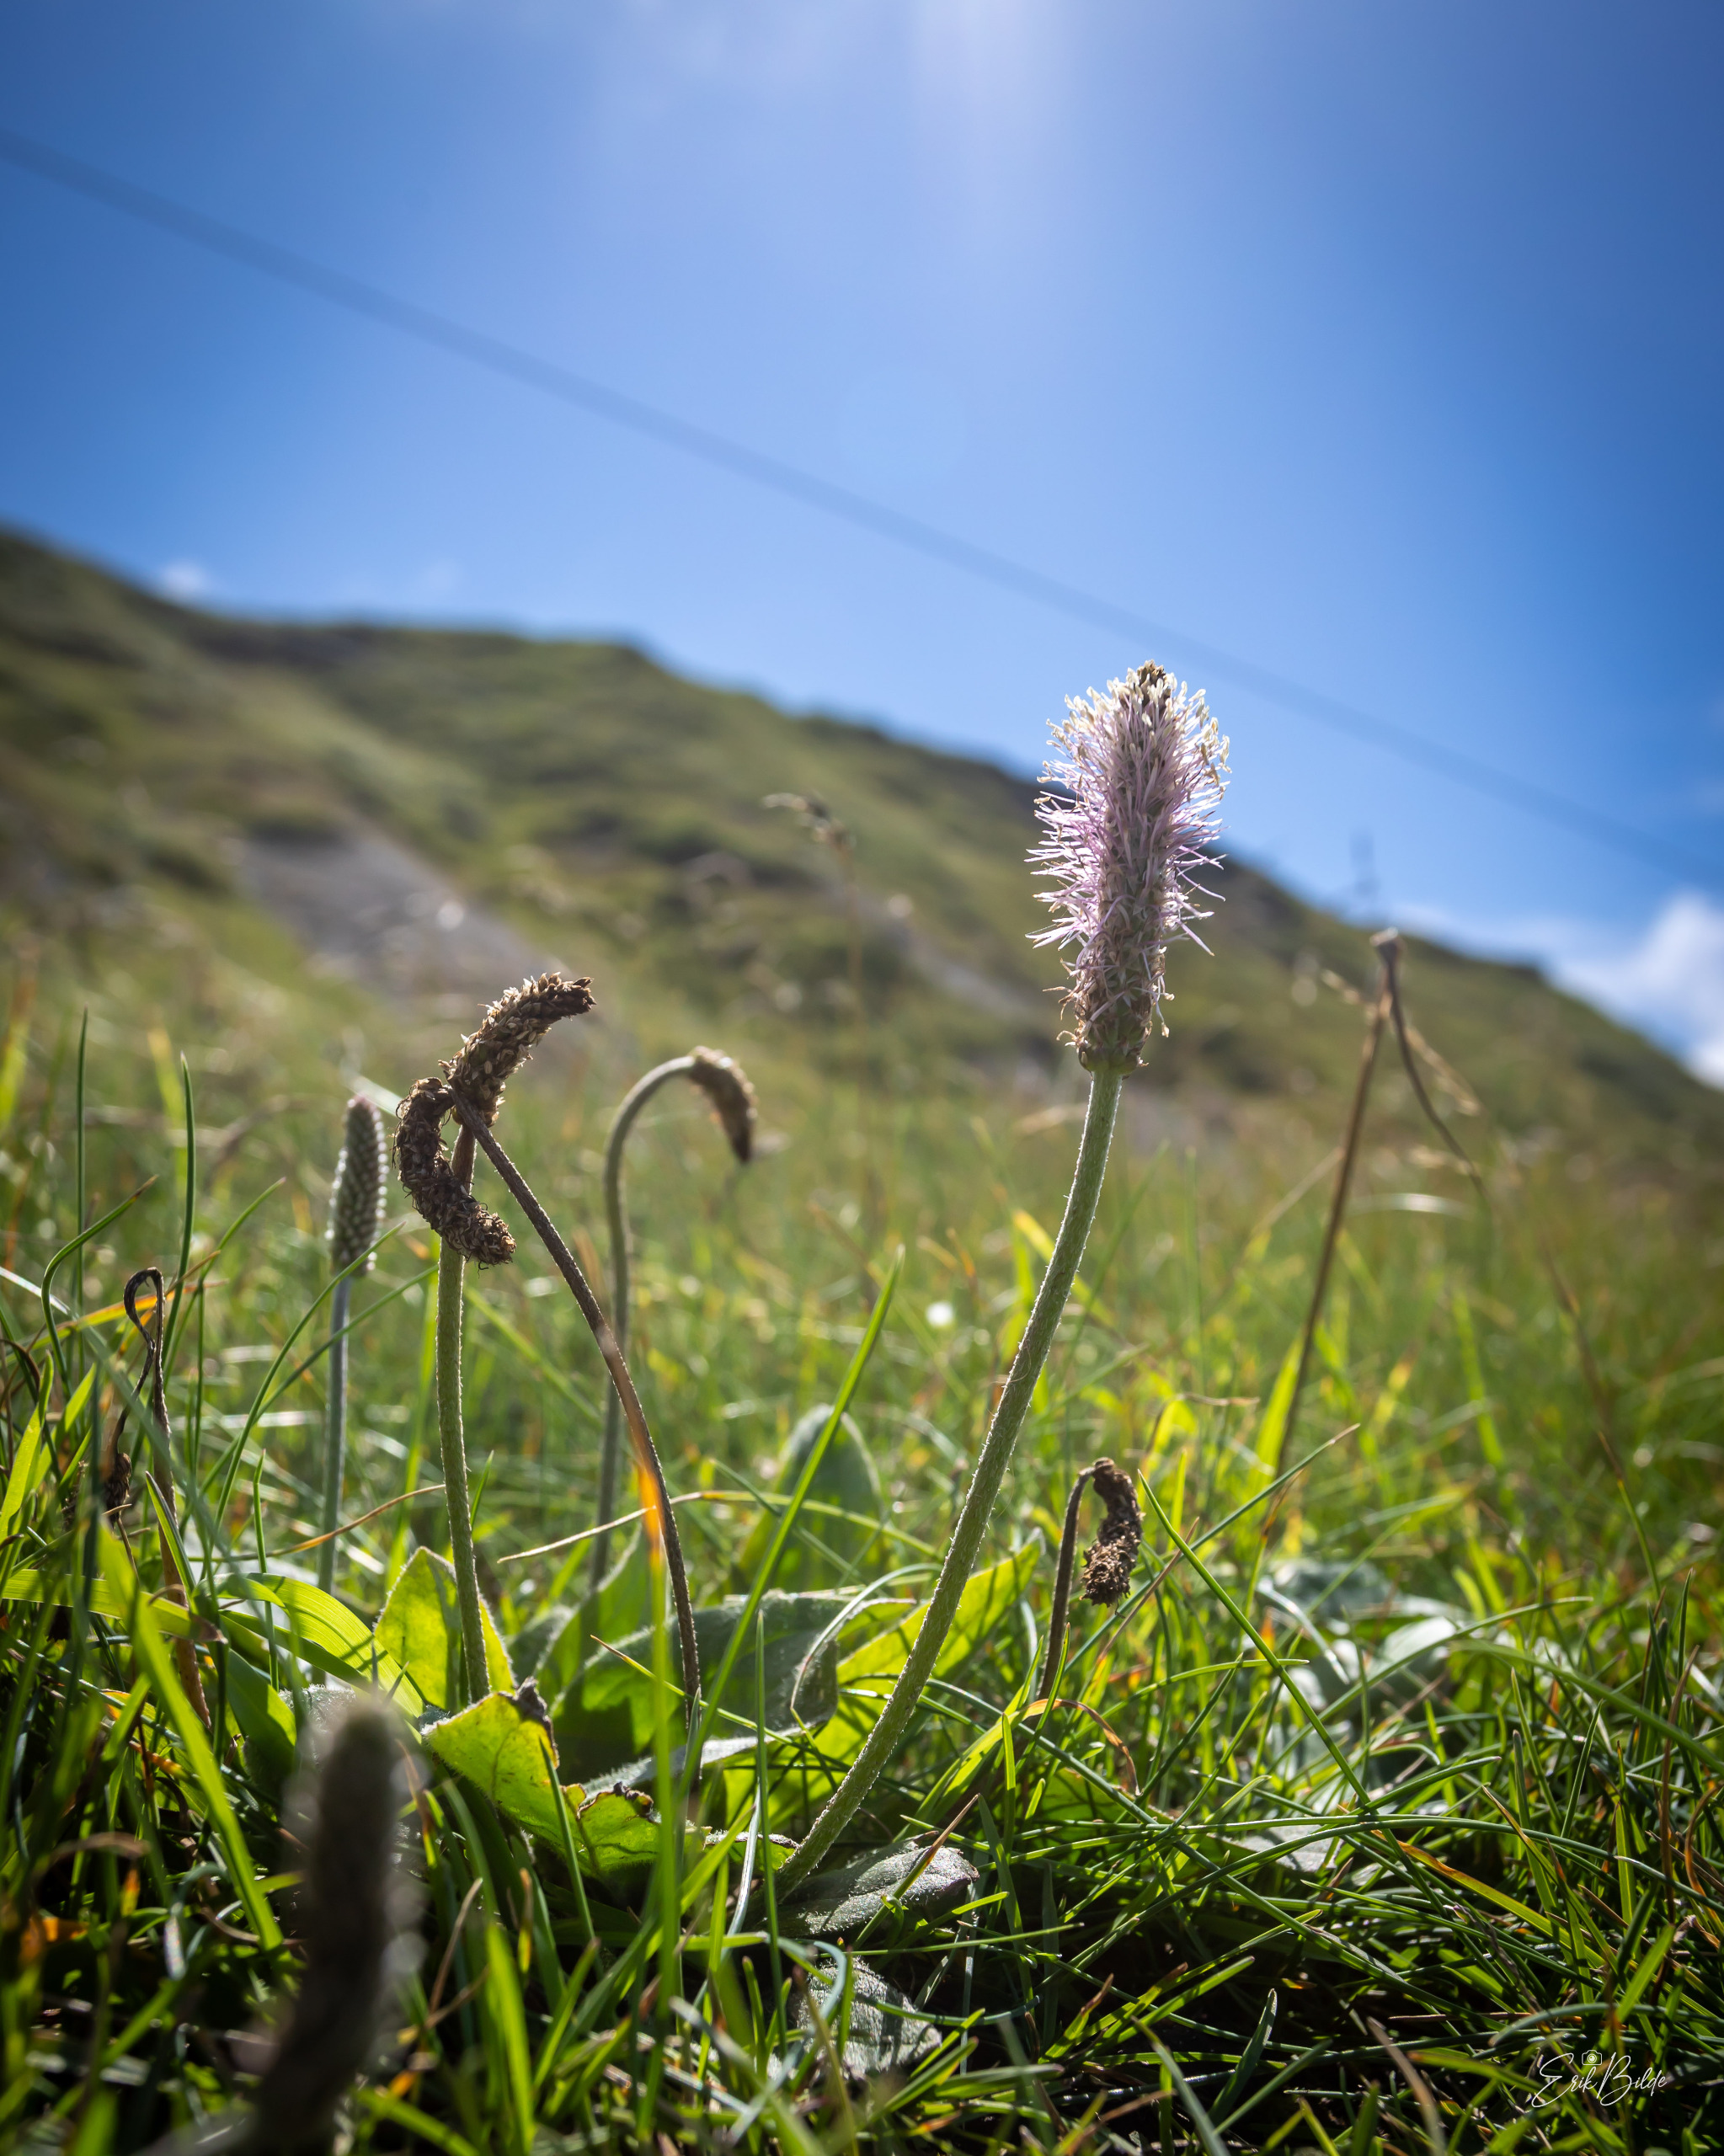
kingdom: Plantae
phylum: Tracheophyta
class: Magnoliopsida
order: Lamiales
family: Plantaginaceae
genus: Plantago
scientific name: Plantago media
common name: Dunet vejbred
